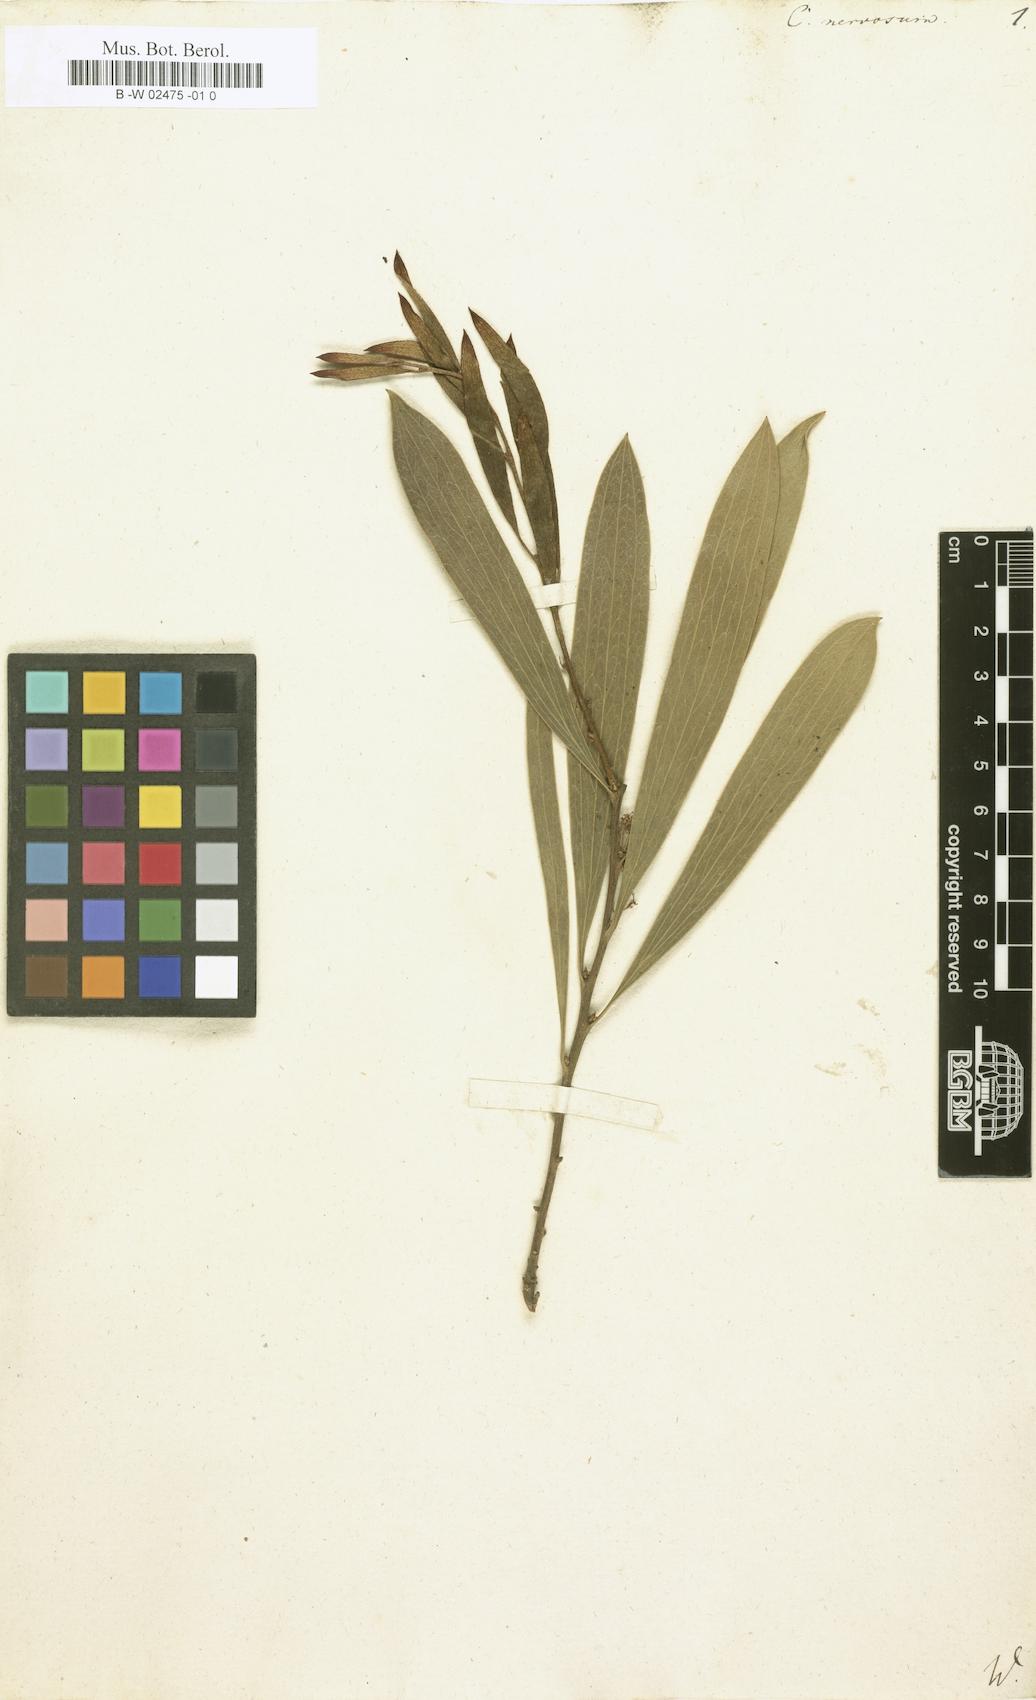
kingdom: Plantae
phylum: Tracheophyta
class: Magnoliopsida
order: Proteales
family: Proteaceae
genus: Hakea
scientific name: Hakea dactyloides
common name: Finger hakea
